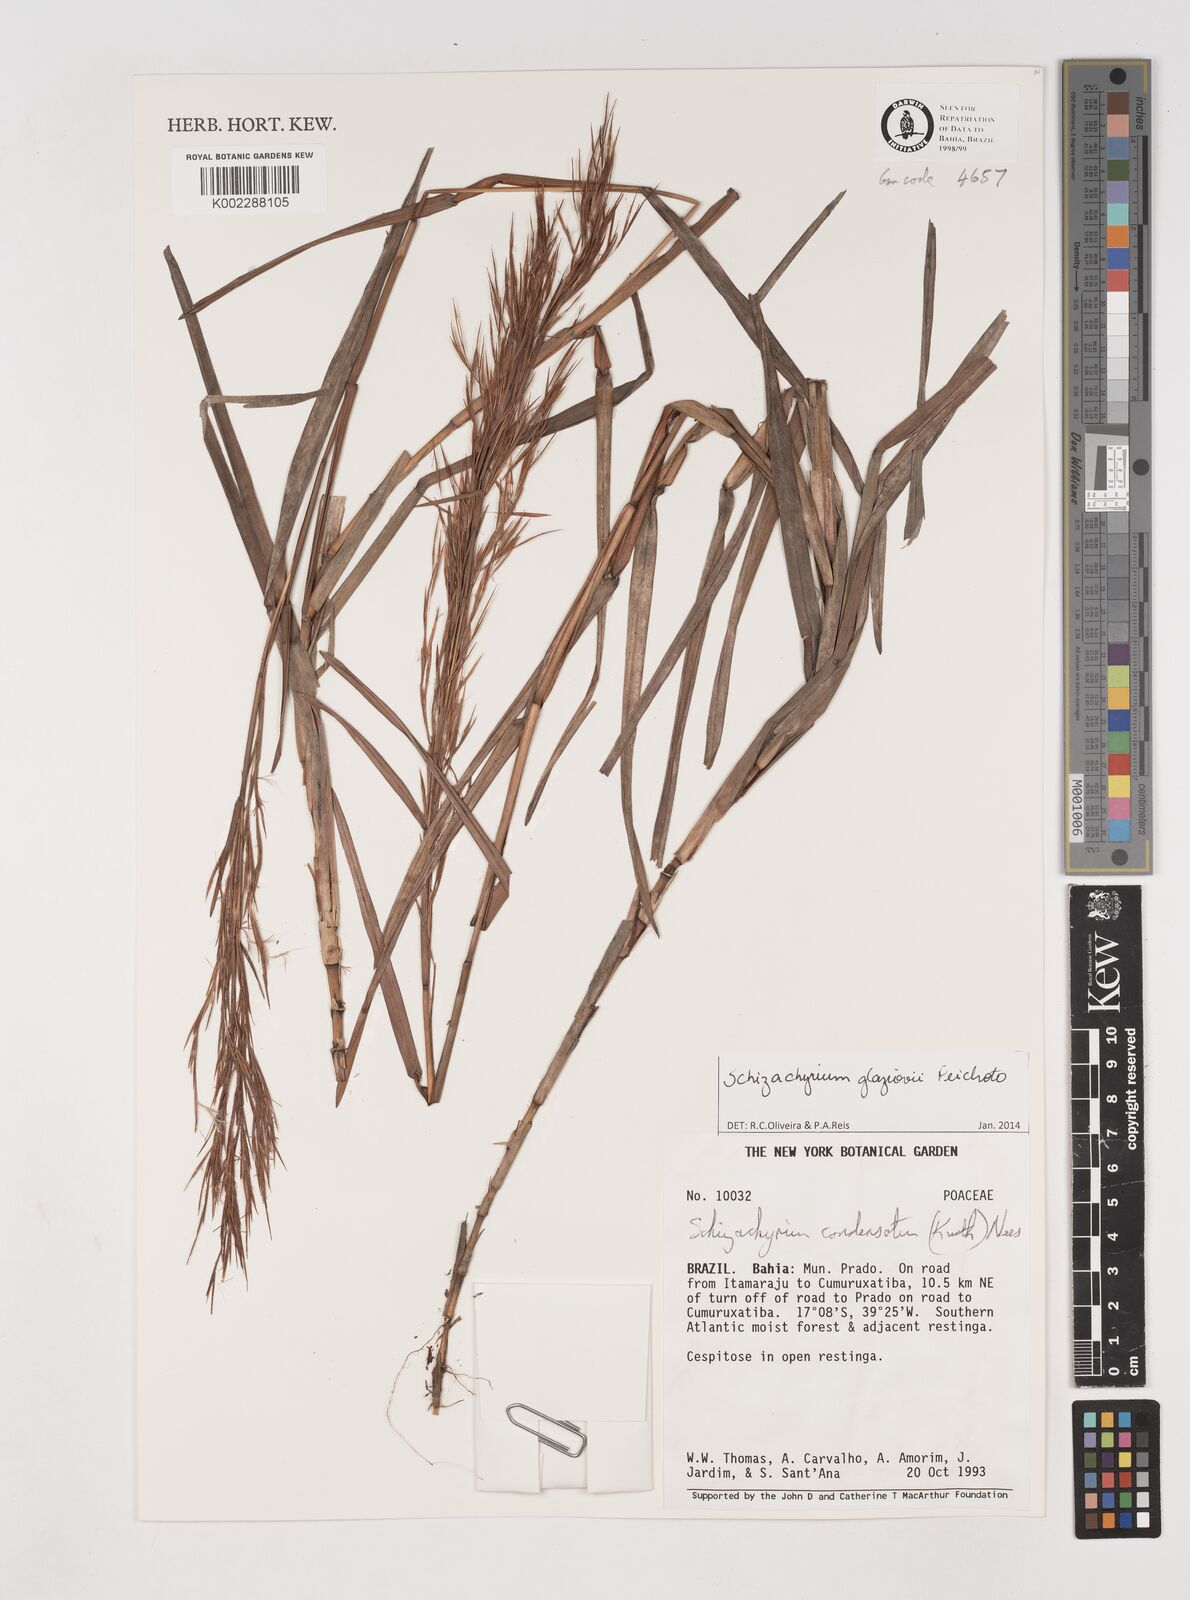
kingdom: Plantae
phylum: Tracheophyta
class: Liliopsida
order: Poales
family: Poaceae
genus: Schizachyrium
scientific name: Schizachyrium condensatum
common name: Bush beardgrass
